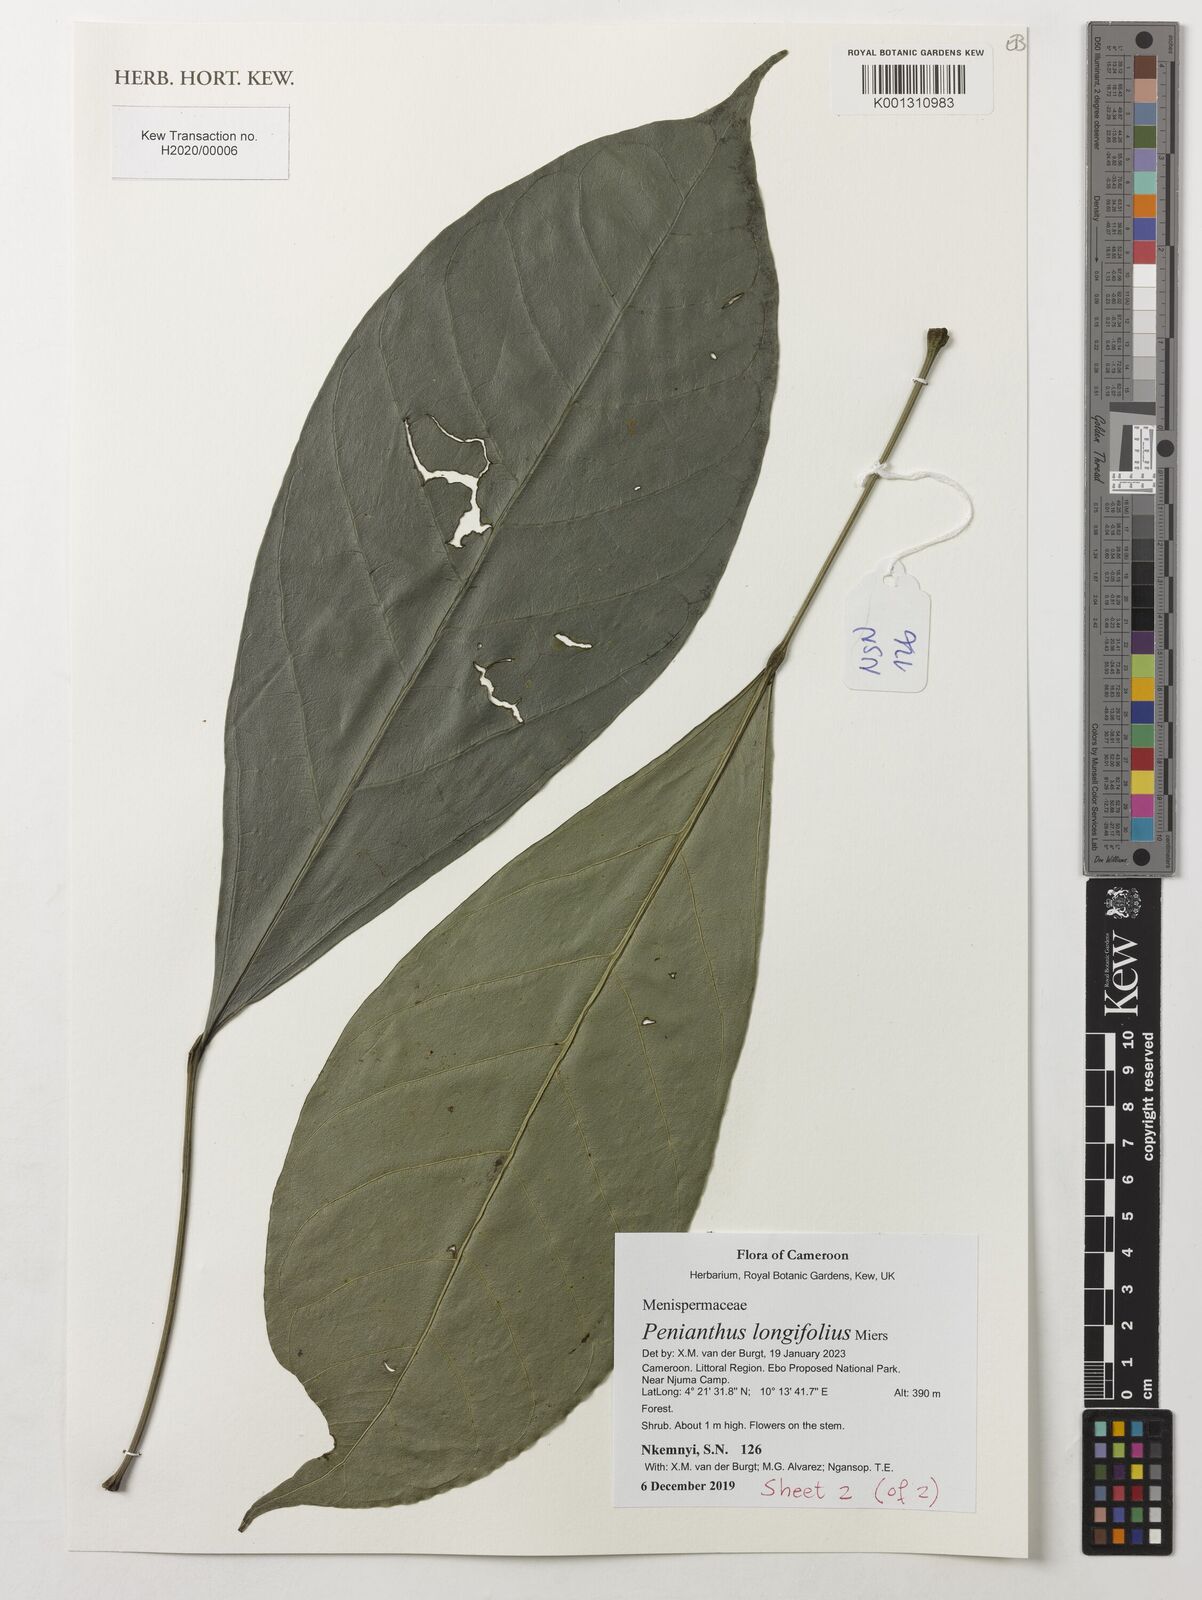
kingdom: Plantae
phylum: Tracheophyta
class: Magnoliopsida
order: Ranunculales
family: Menispermaceae
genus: Penianthus
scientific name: Penianthus longifolius
